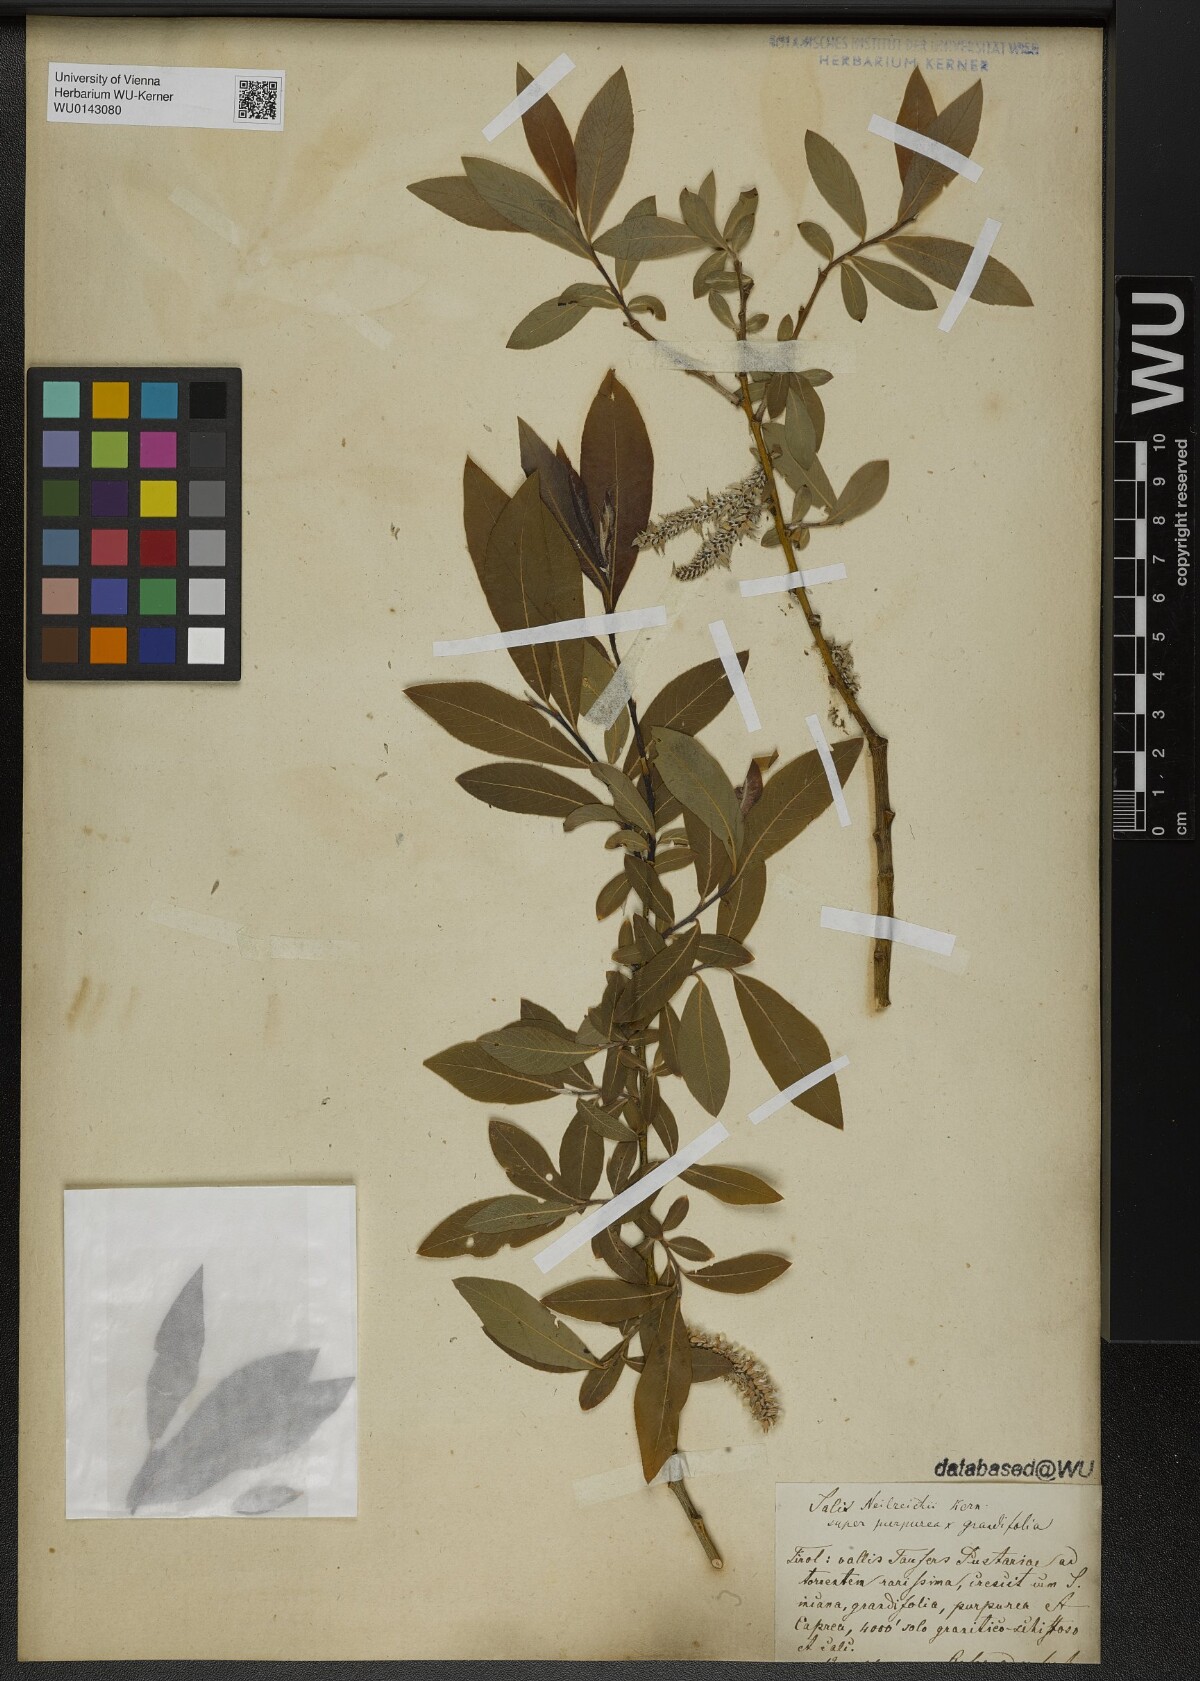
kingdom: Plantae
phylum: Tracheophyta
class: Magnoliopsida
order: Malpighiales
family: Salicaceae
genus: Salix
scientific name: Salix purpurea
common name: Purple willow
